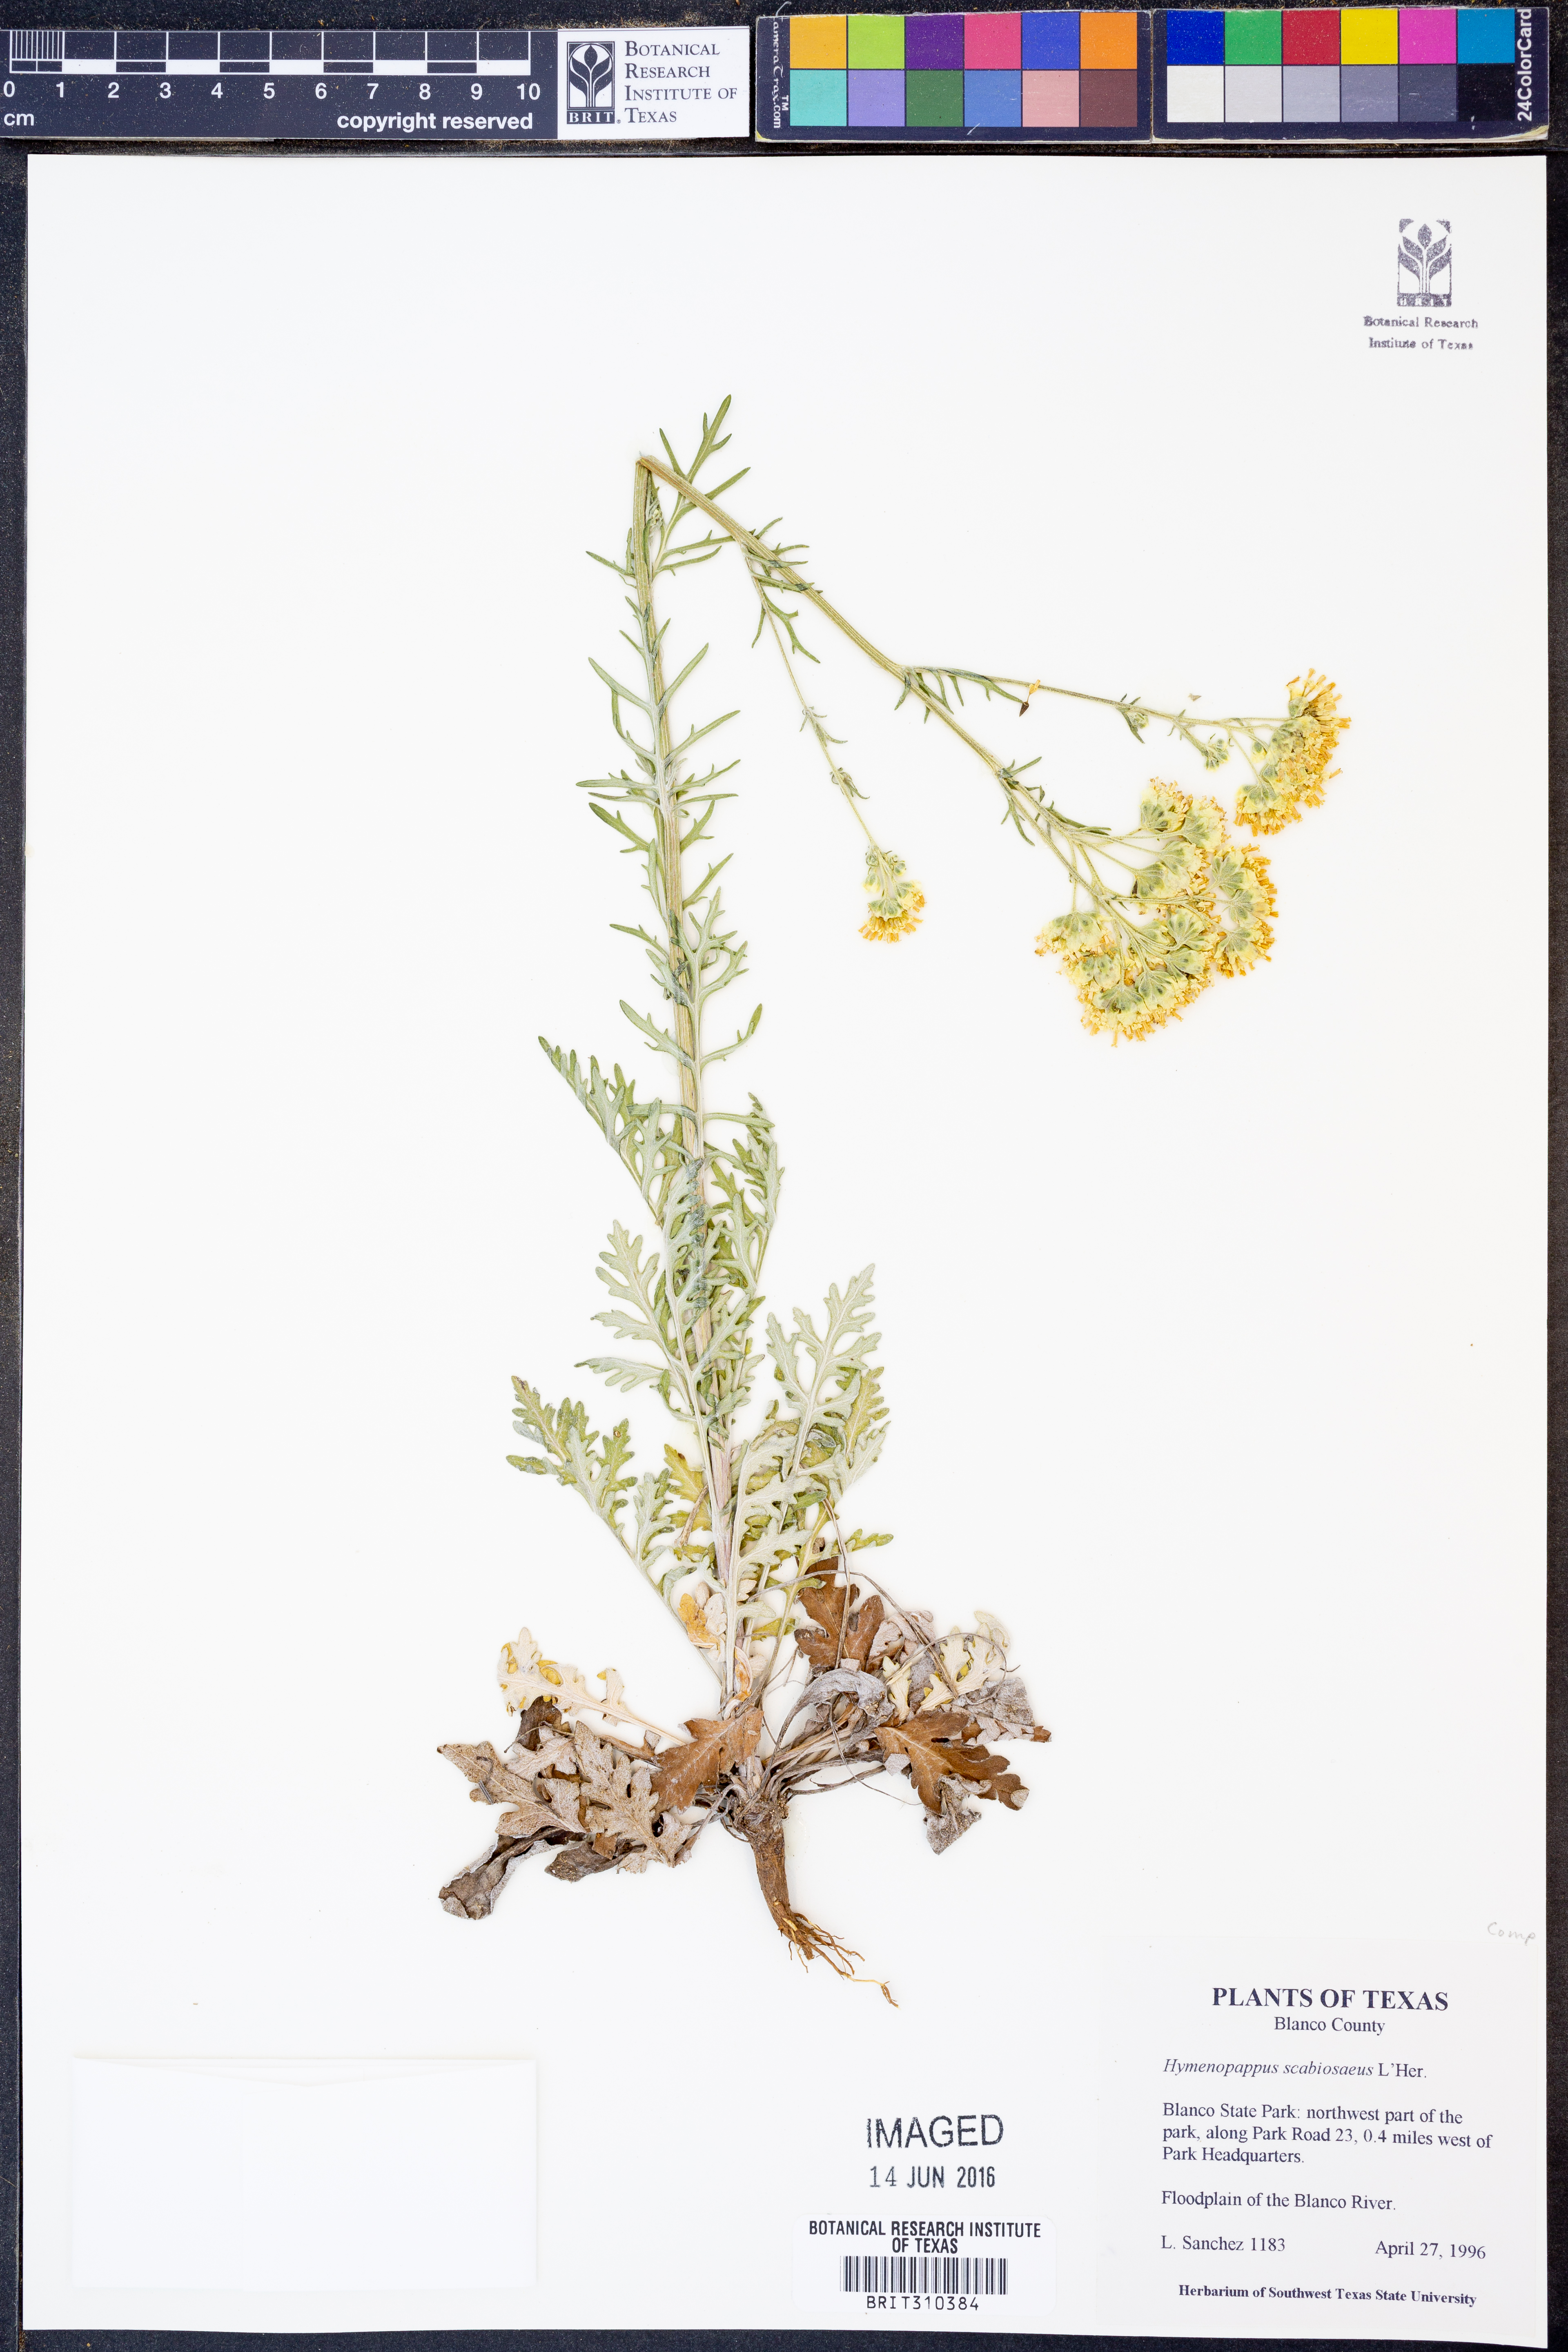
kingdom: Plantae
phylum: Tracheophyta
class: Magnoliopsida
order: Asterales
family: Asteraceae
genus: Hymenopappus
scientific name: Hymenopappus scabiosaeus
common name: Carolina woollywhite
